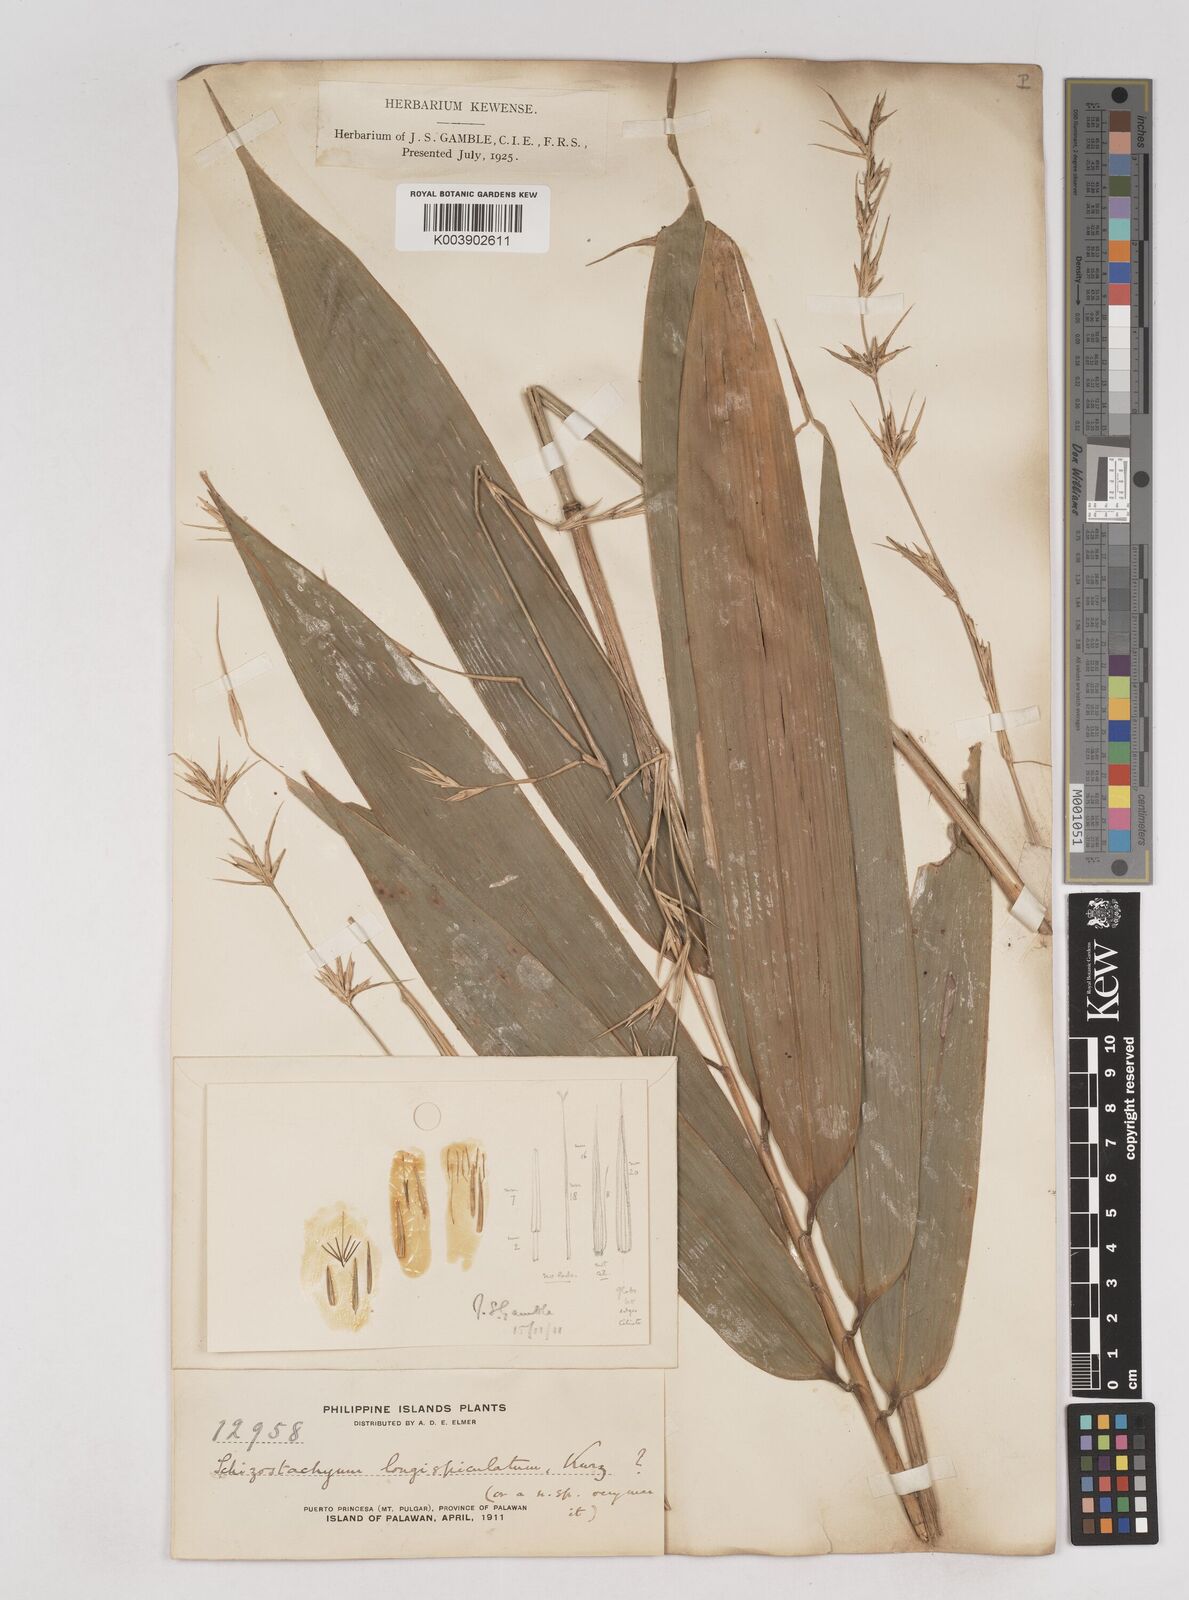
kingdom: Plantae
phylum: Tracheophyta
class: Liliopsida
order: Poales
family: Poaceae
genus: Schizostachyum
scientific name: Schizostachyum lima
